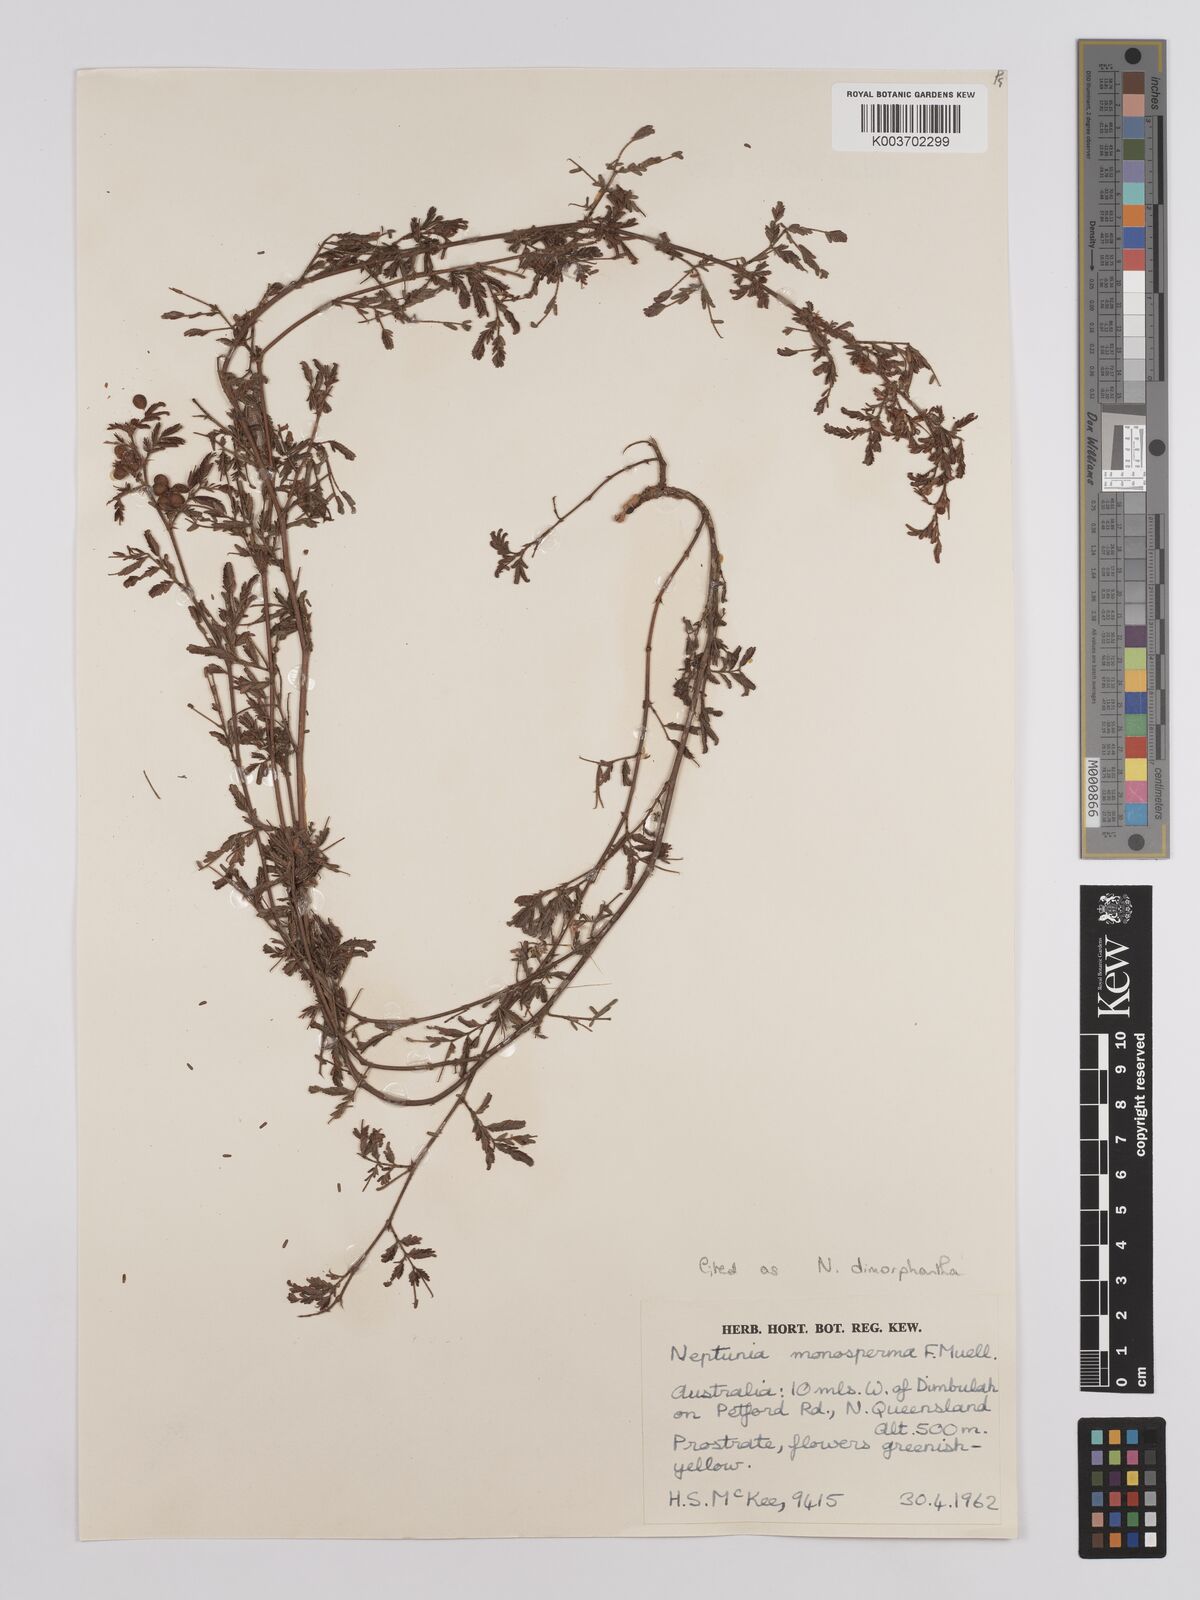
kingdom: Plantae
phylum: Tracheophyta
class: Magnoliopsida
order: Fabales
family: Fabaceae
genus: Neptunia
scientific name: Neptunia dimorphantha
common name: Sensitive-plant
